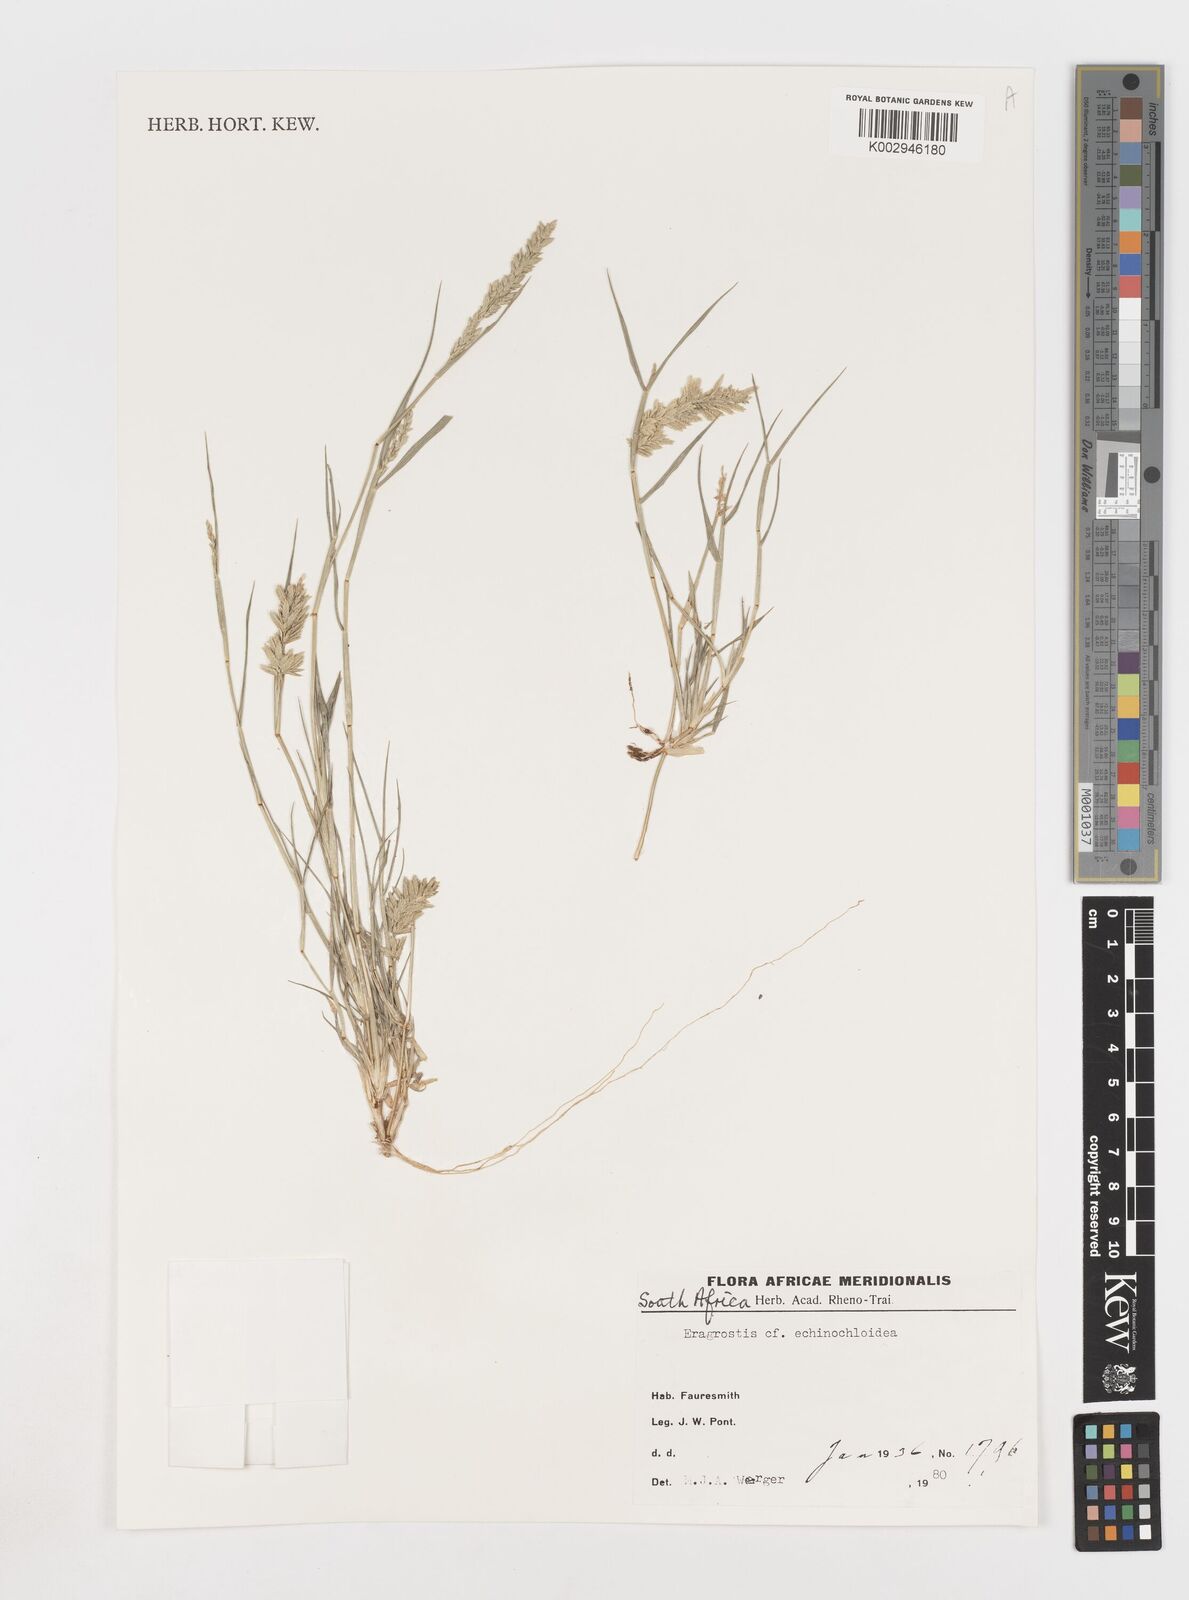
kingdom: Plantae
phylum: Tracheophyta
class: Liliopsida
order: Poales
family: Poaceae
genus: Eragrostis
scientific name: Eragrostis echinochloidea
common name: African lovegrass
